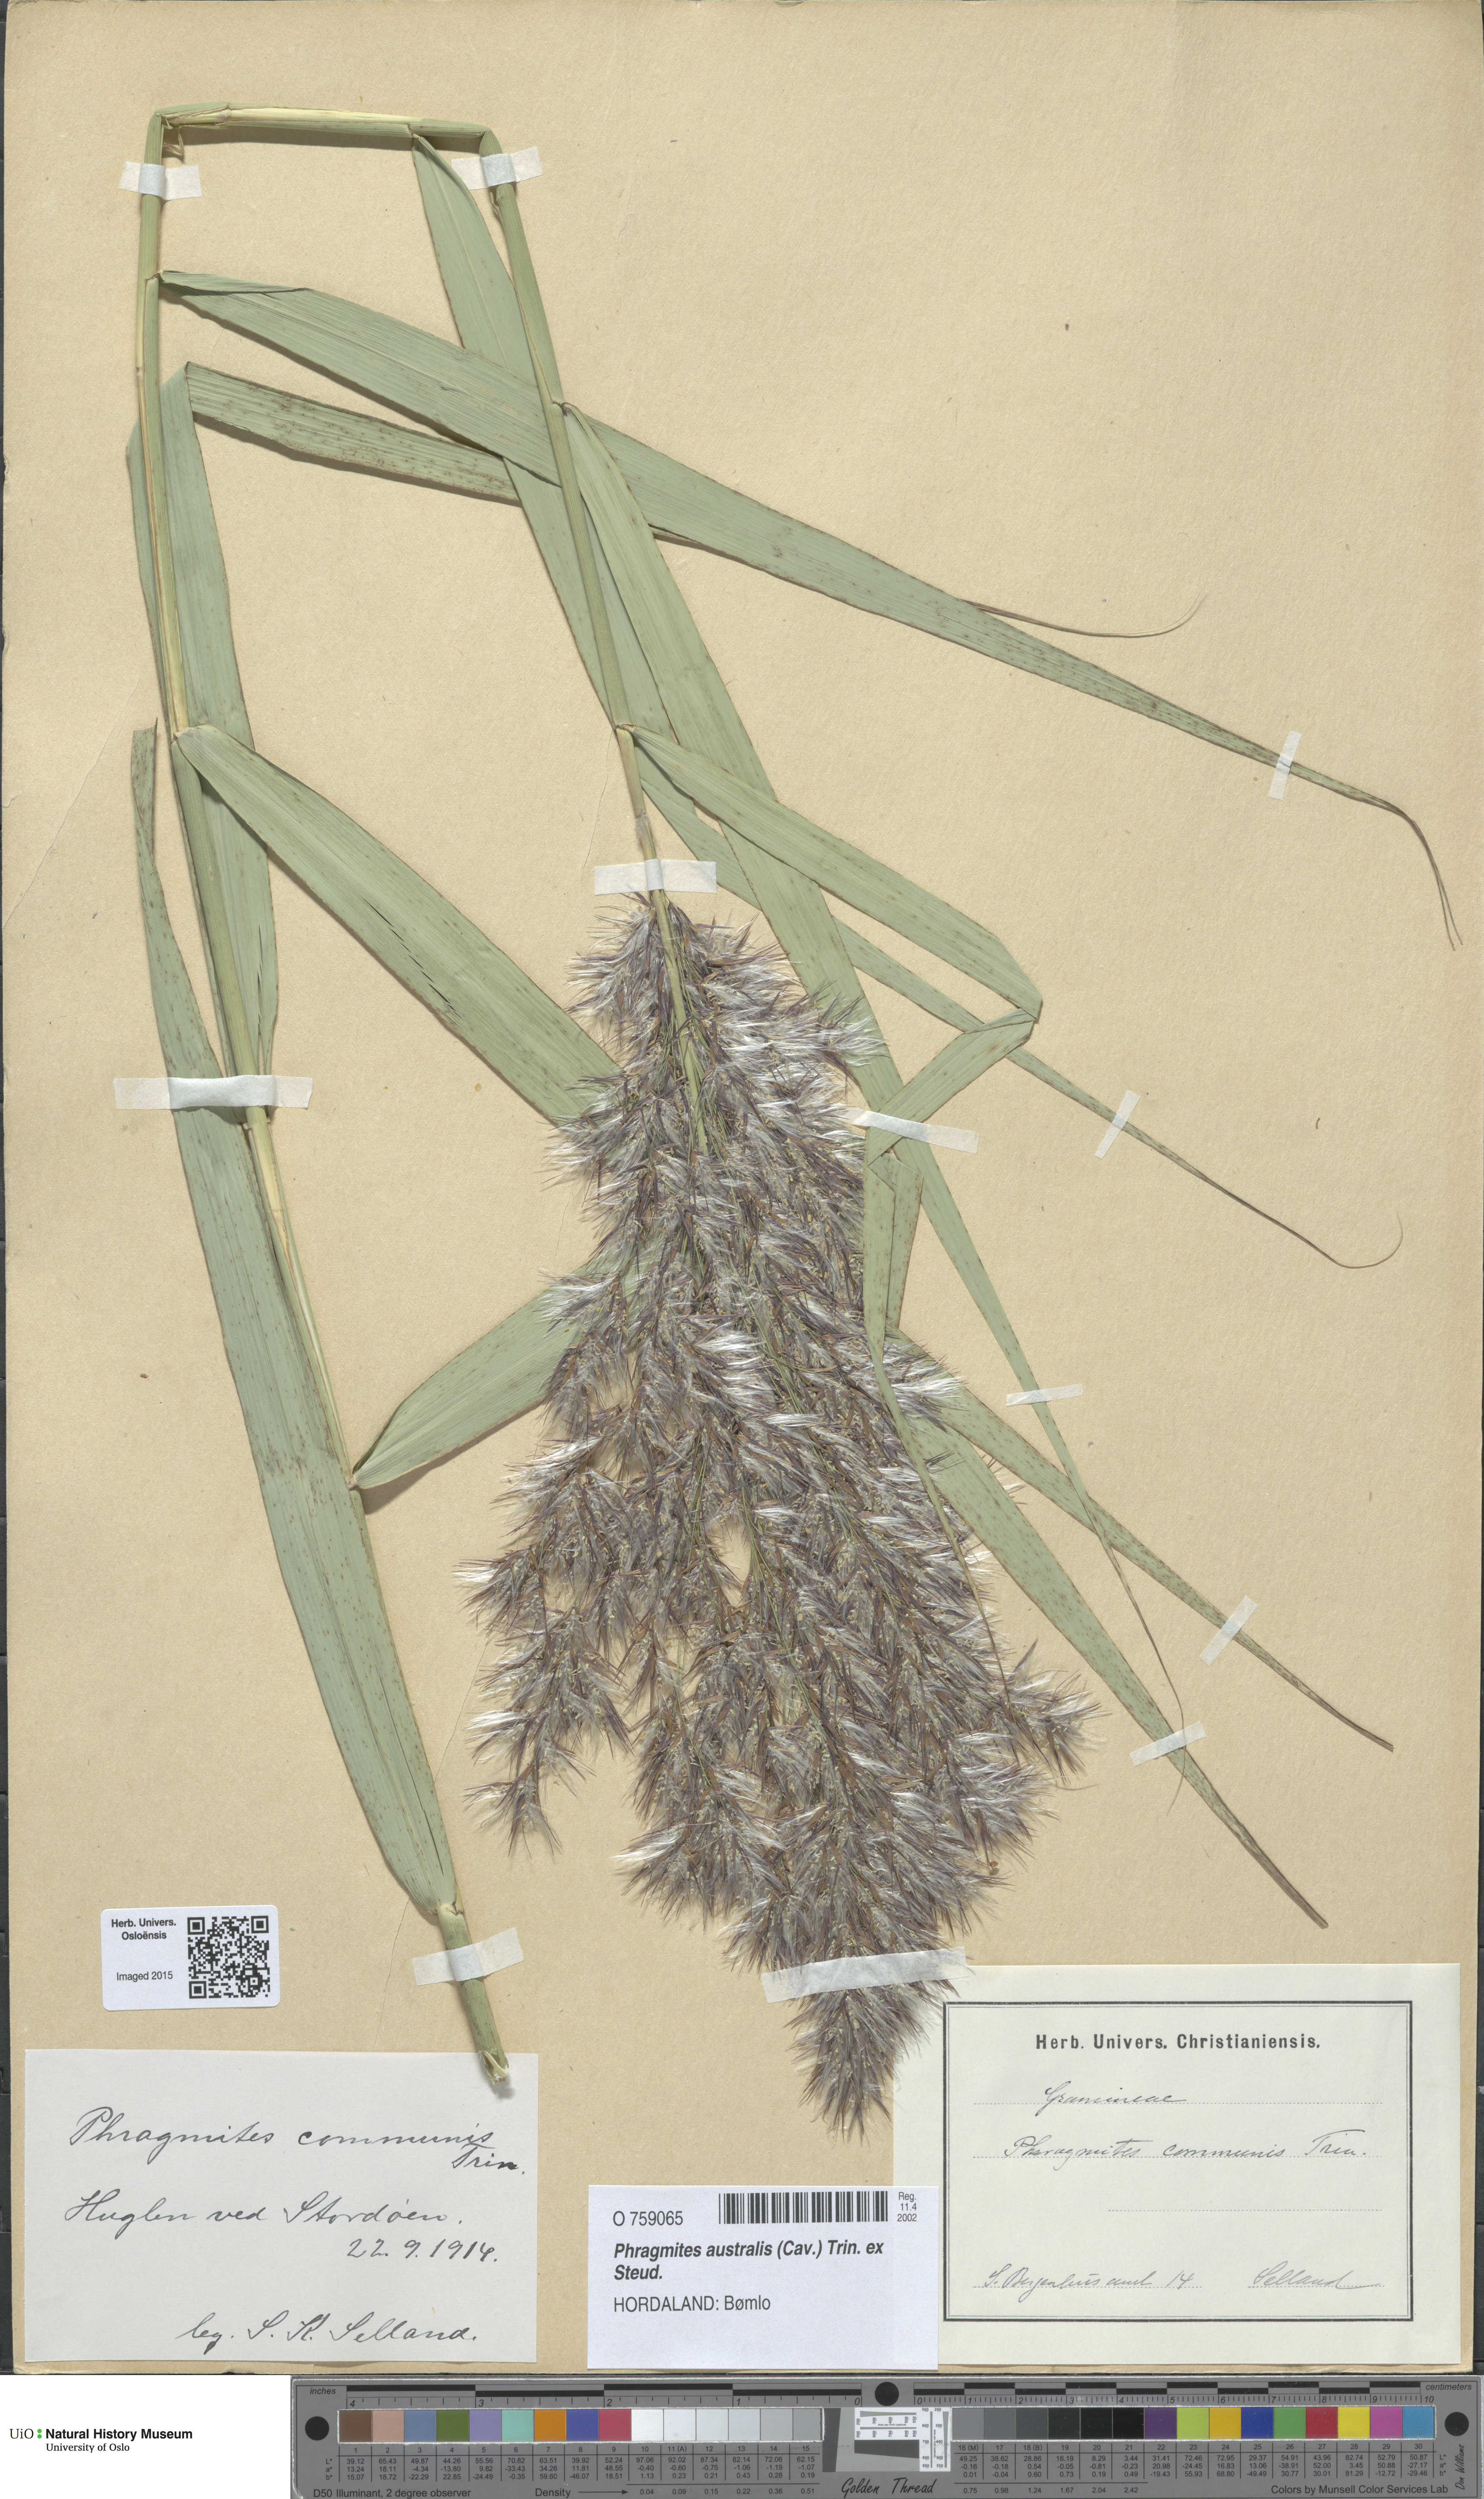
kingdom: Plantae
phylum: Tracheophyta
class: Liliopsida
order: Poales
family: Poaceae
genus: Phragmites
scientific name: Phragmites australis
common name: Common reed
